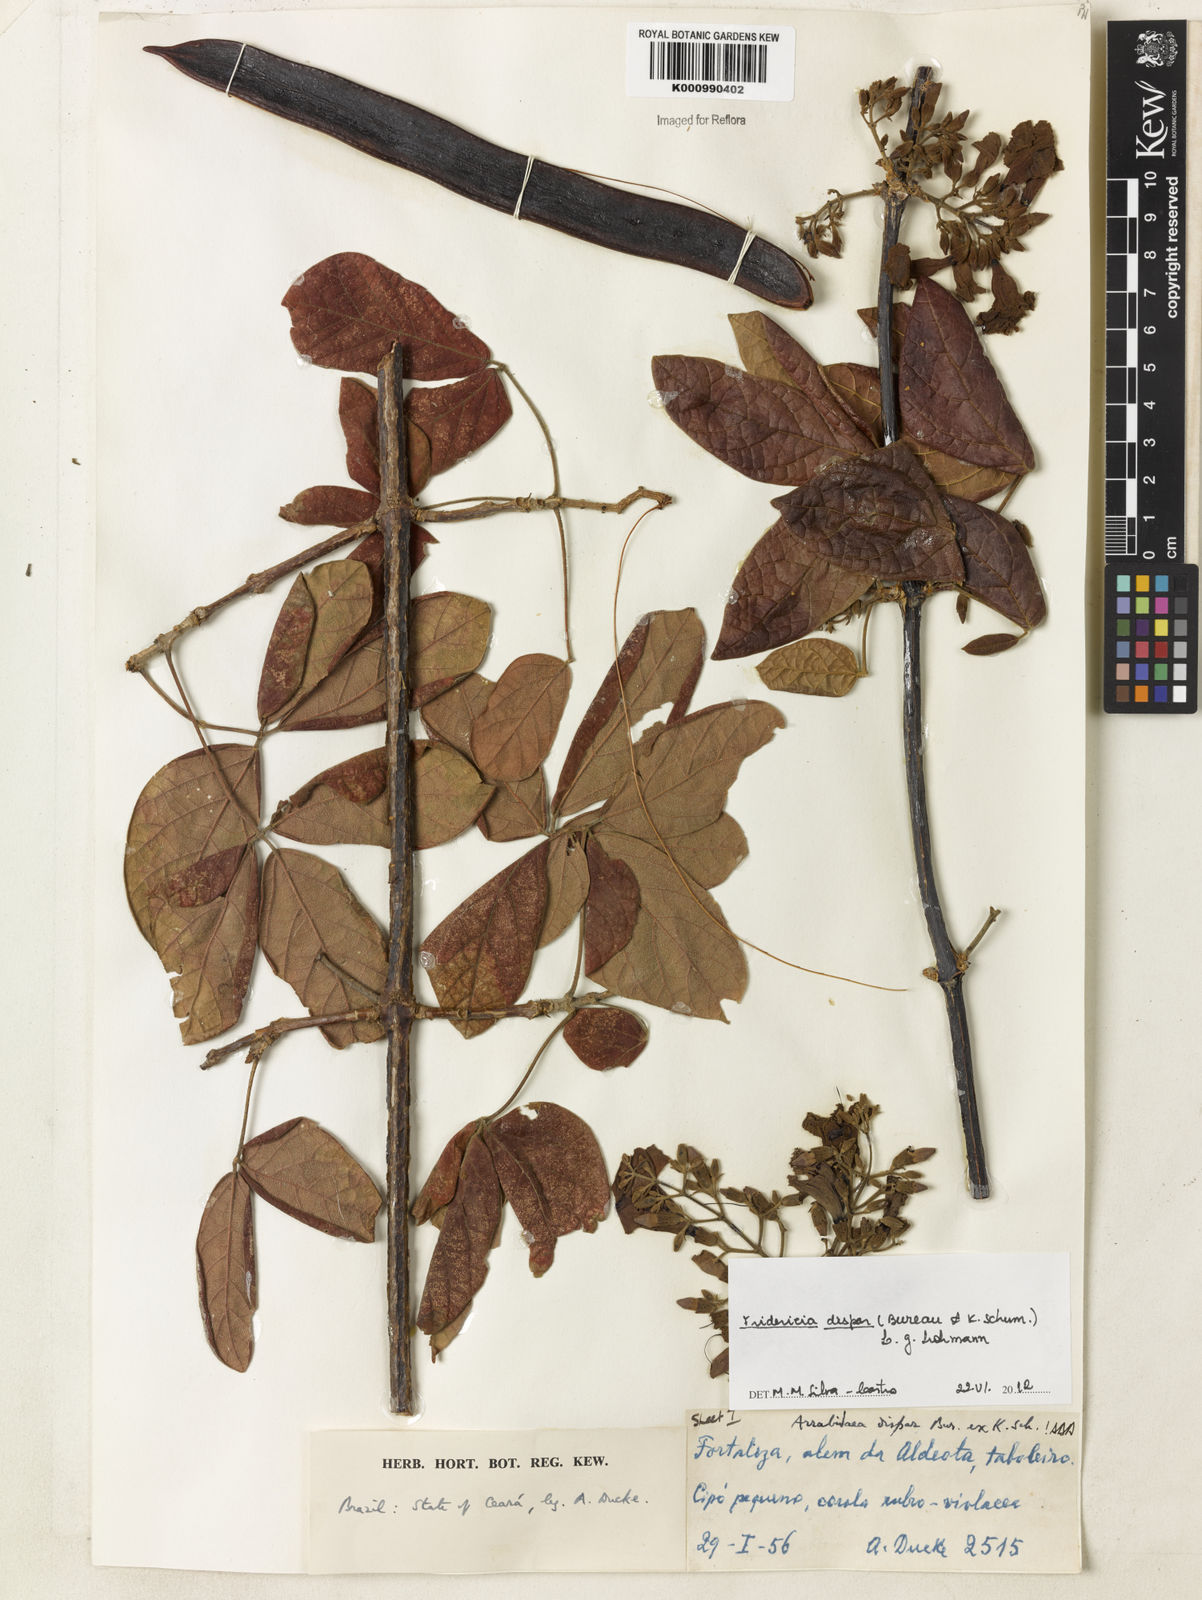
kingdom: Plantae
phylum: Tracheophyta
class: Magnoliopsida
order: Lamiales
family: Bignoniaceae
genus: Fridericia
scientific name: Fridericia dispar
